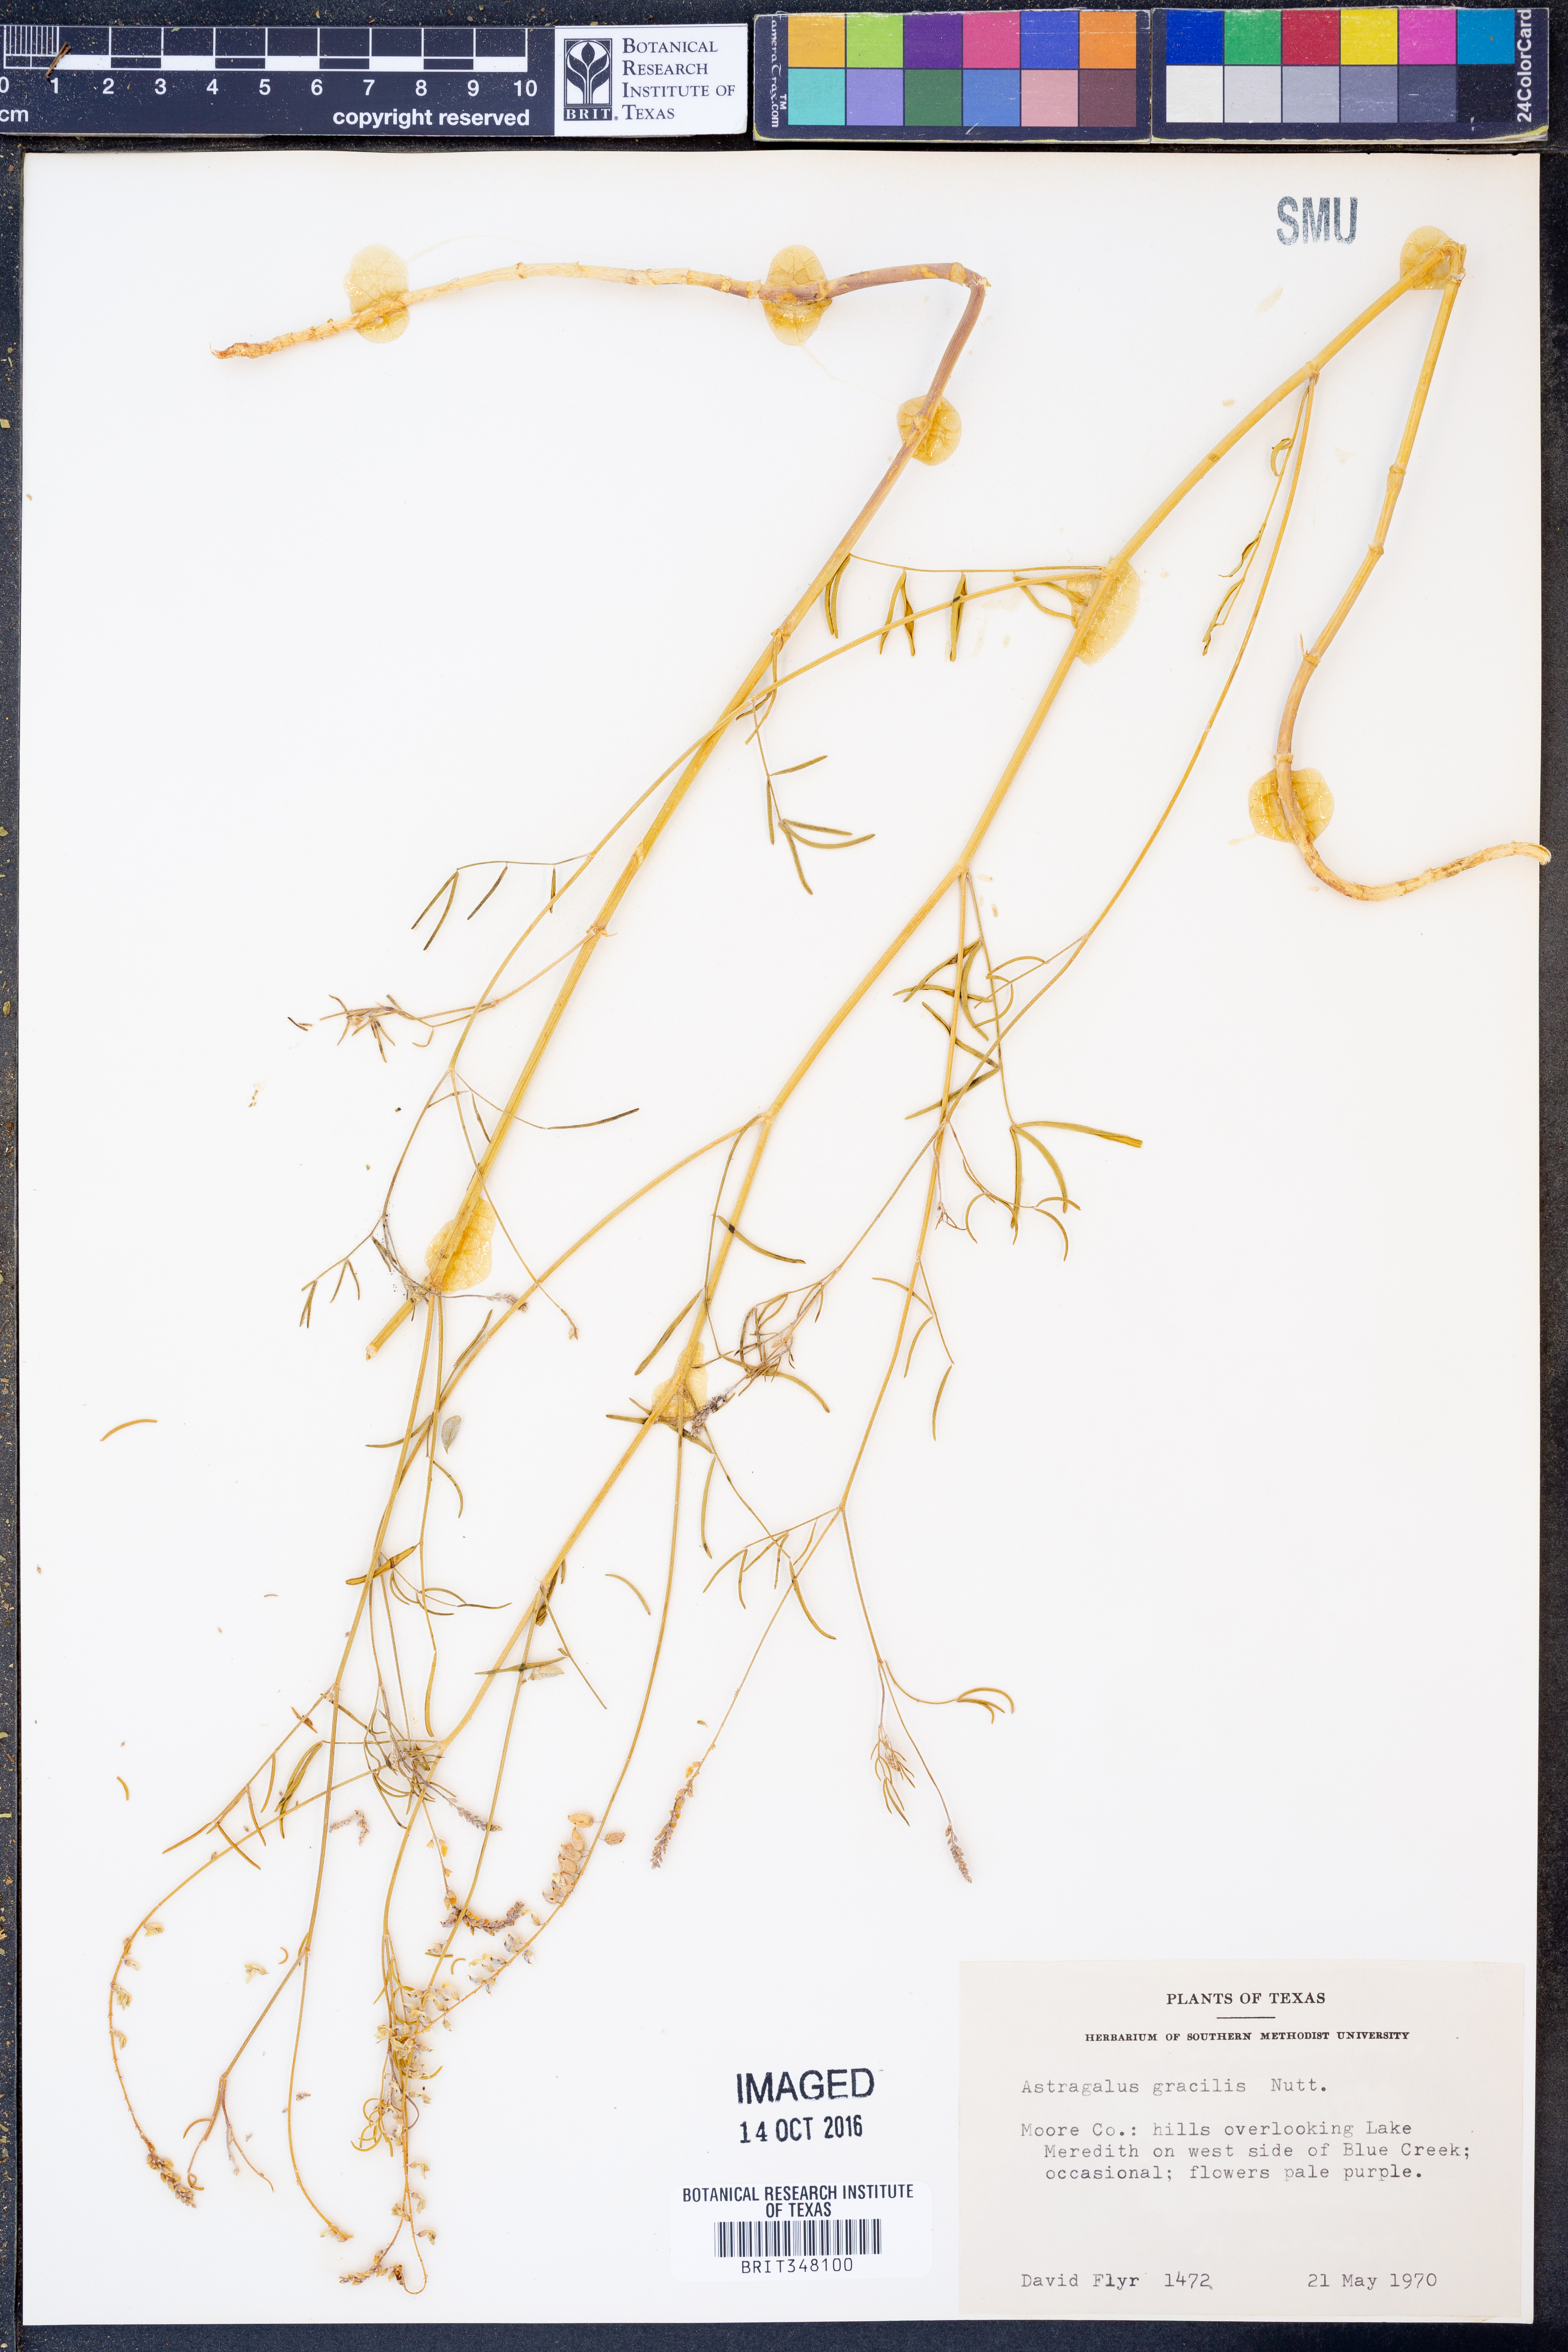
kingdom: Plantae
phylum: Tracheophyta
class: Magnoliopsida
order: Fabales
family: Fabaceae
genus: Astragalus
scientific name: Astragalus gracilis
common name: Slender milk-vetch
